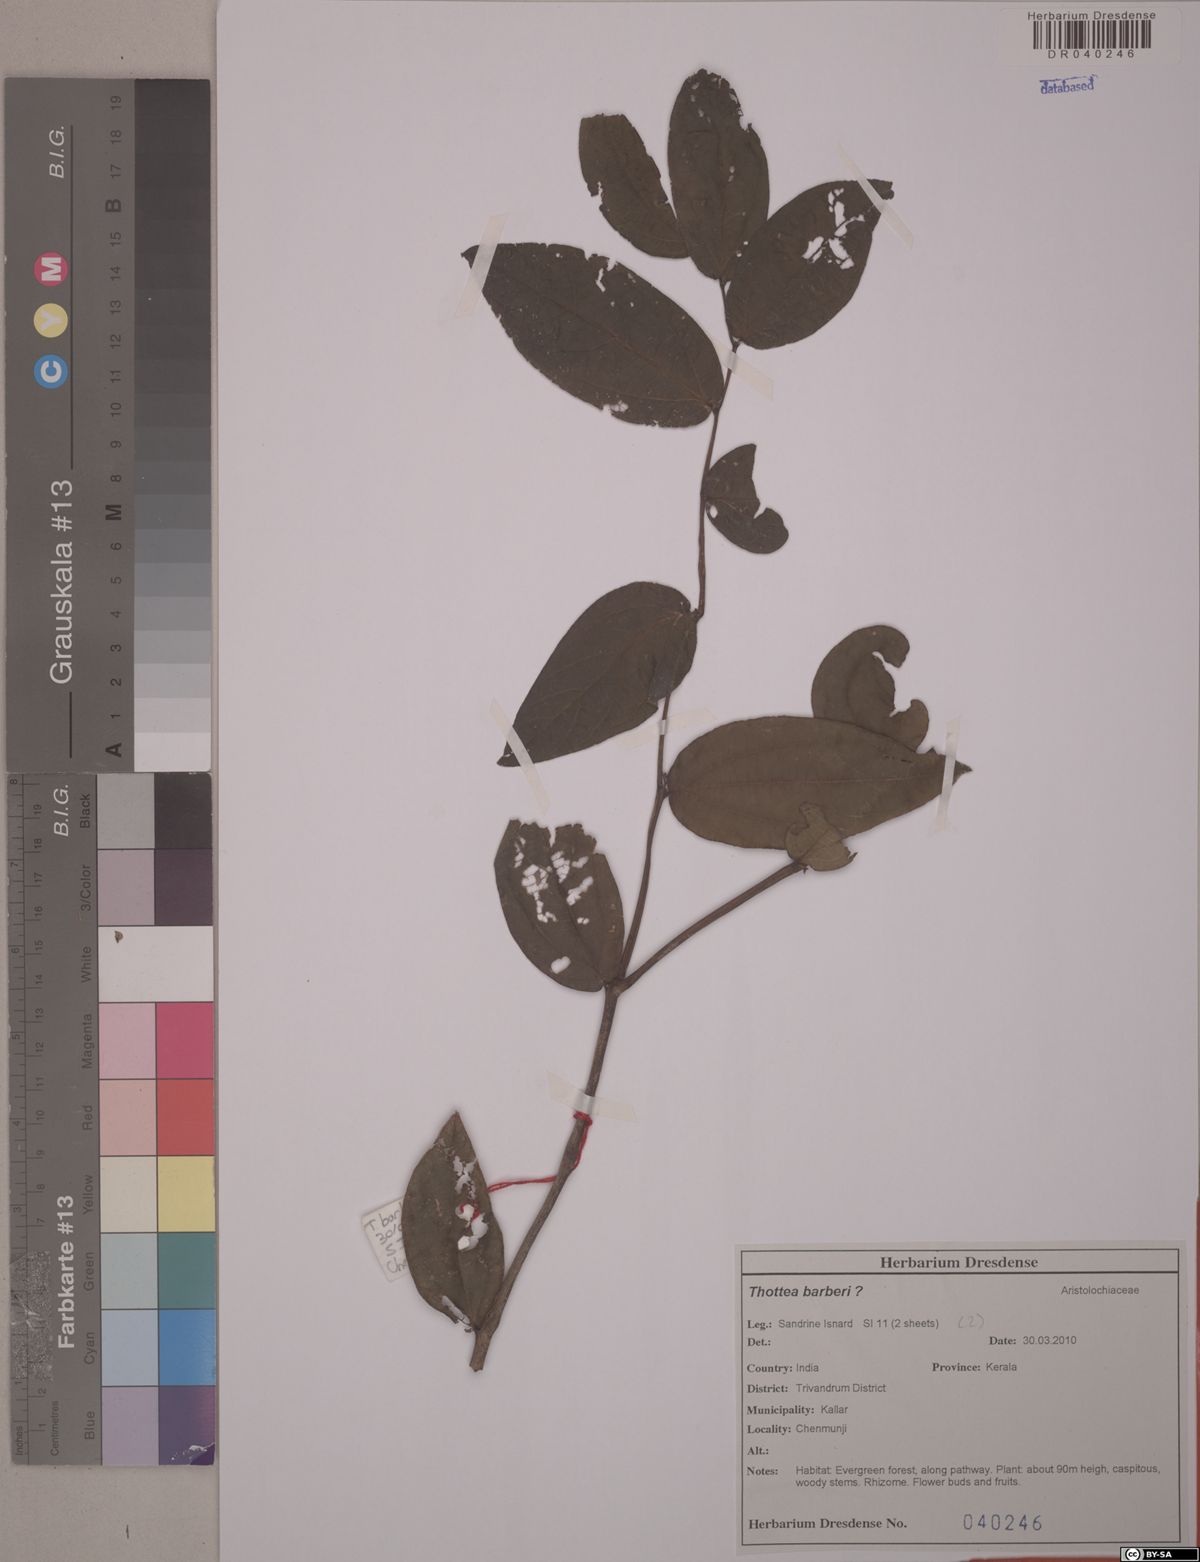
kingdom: Plantae
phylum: Tracheophyta
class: Magnoliopsida
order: Piperales
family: Aristolochiaceae
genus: Thottea
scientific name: Thottea barberi
